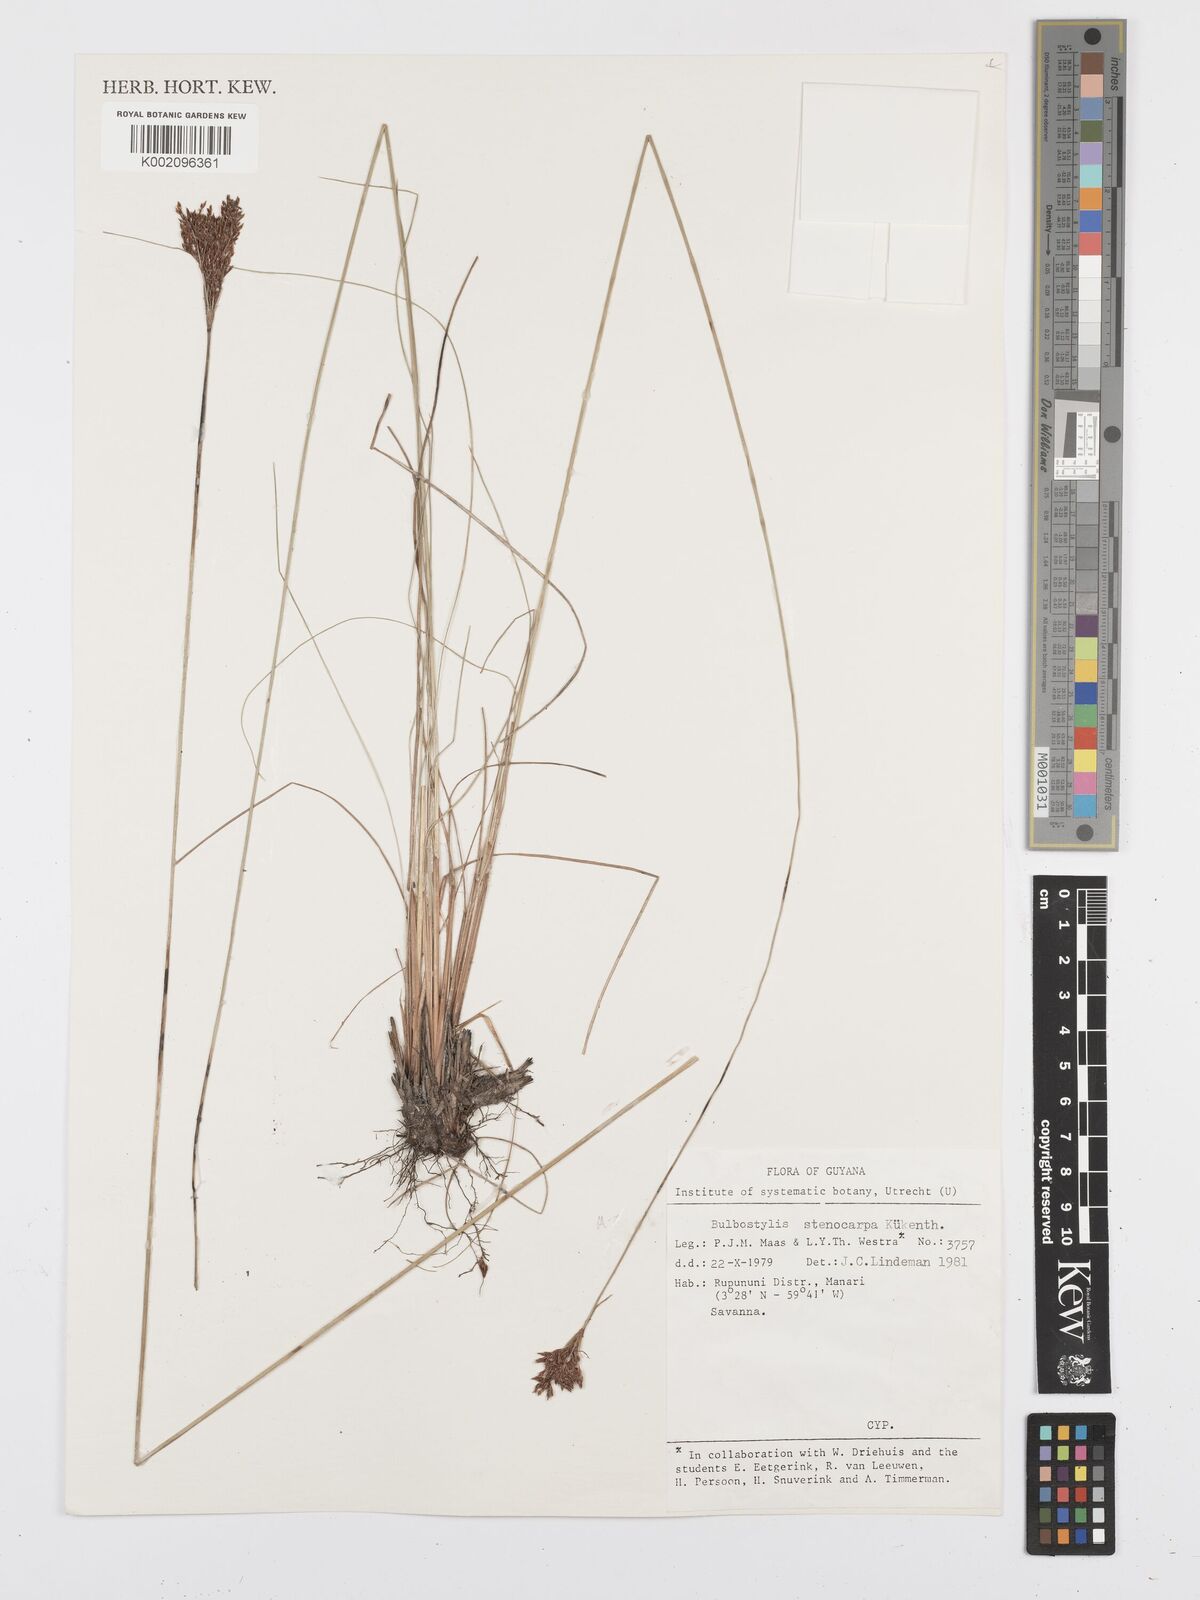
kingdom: Plantae
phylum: Tracheophyta
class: Liliopsida
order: Poales
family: Cyperaceae
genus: Bulbostylis
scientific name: Bulbostylis stenocarpa
